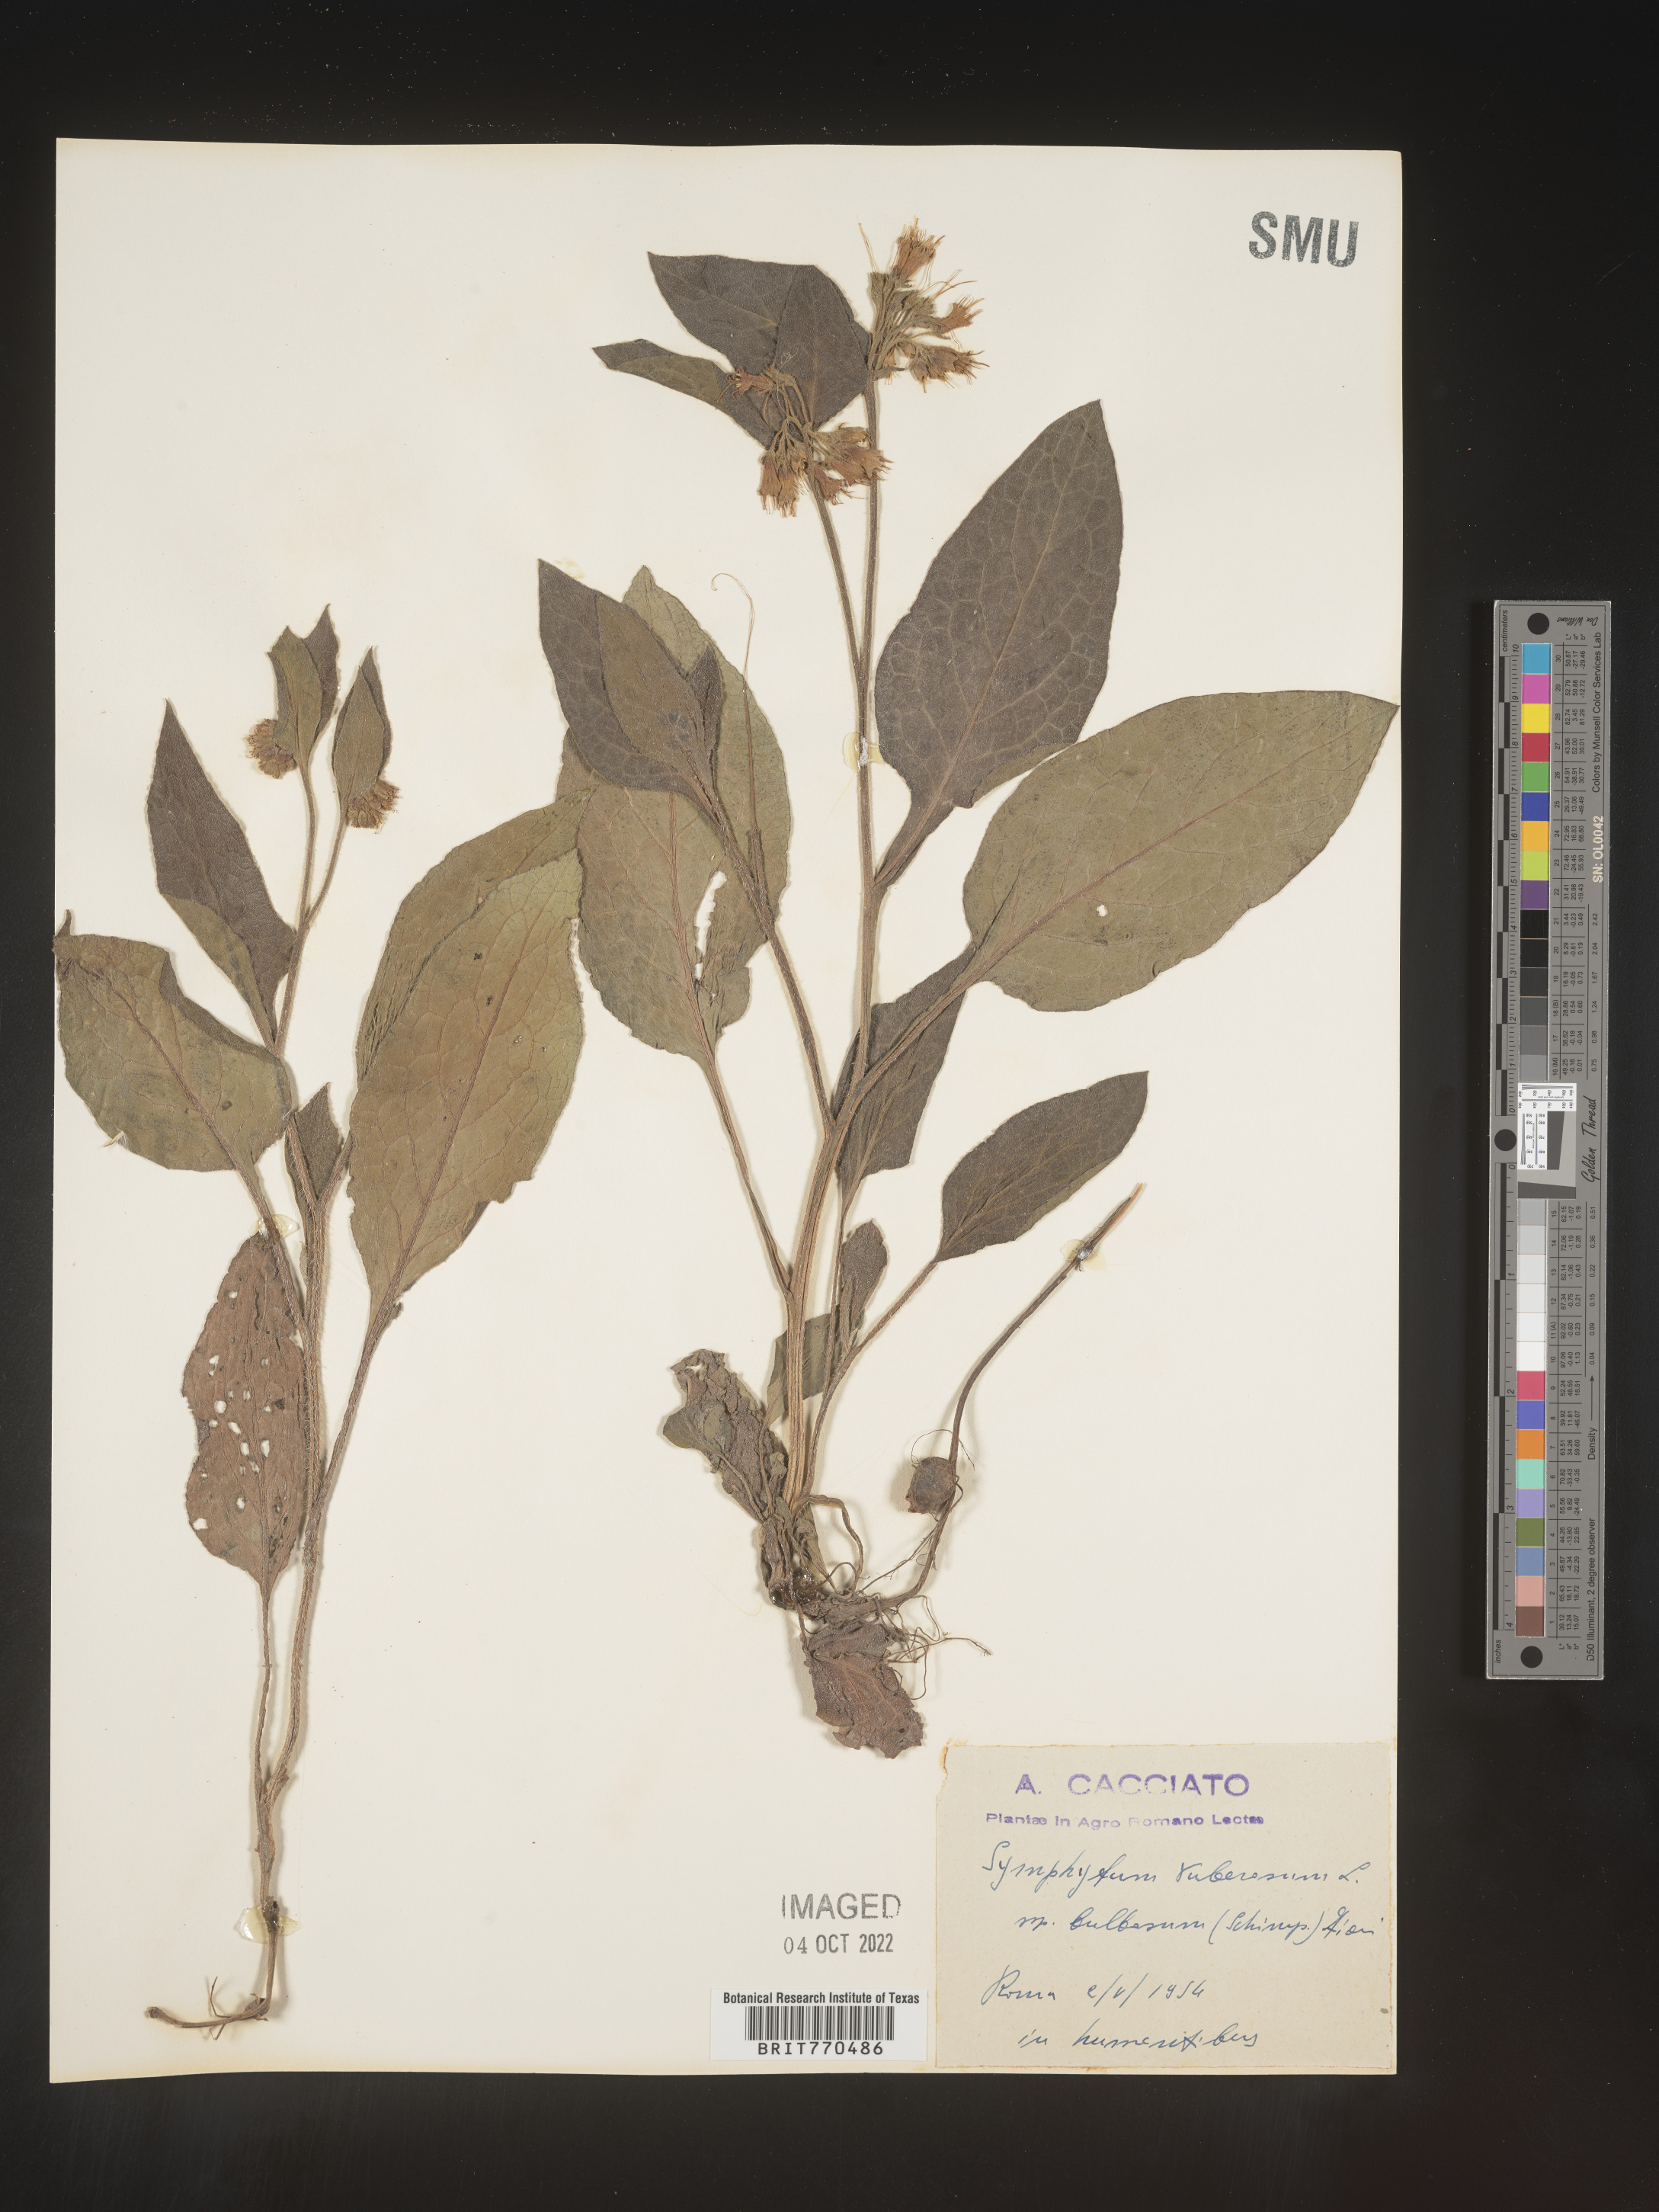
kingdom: Plantae
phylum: Tracheophyta
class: Magnoliopsida
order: Boraginales
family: Boraginaceae
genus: Symphytum
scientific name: Symphytum
